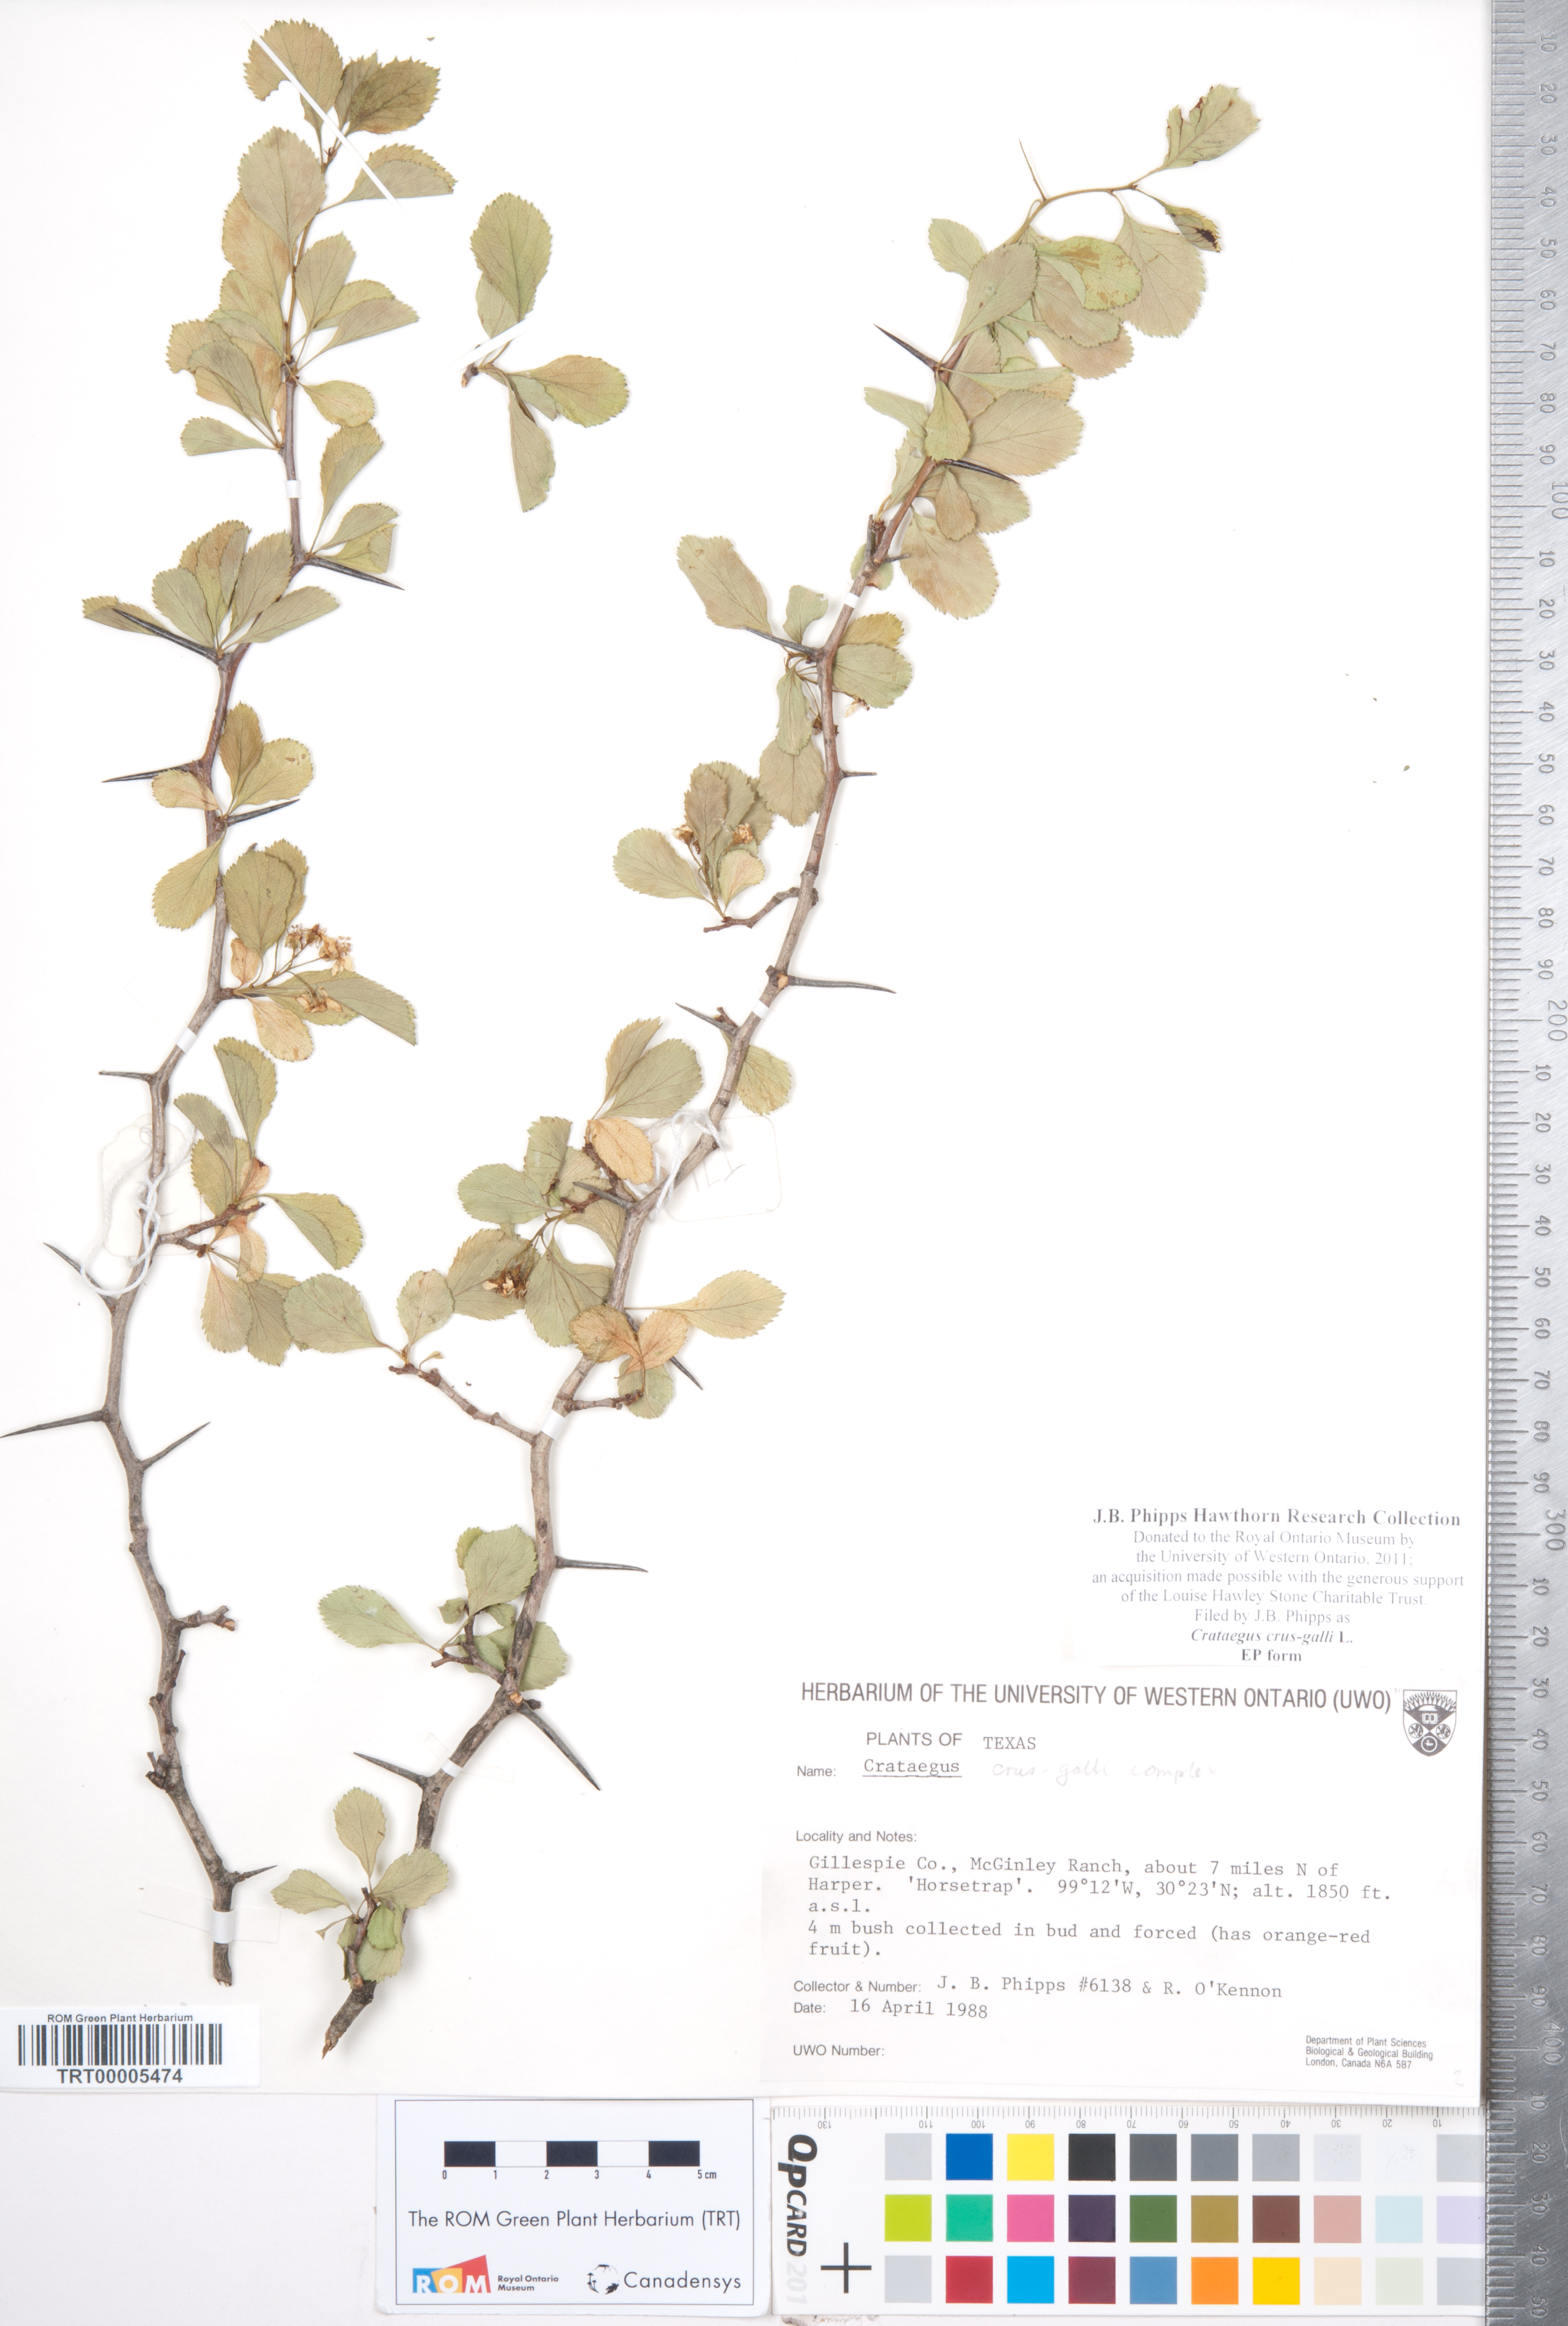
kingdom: Plantae
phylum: Tracheophyta
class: Magnoliopsida
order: Rosales
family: Rosaceae
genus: Crataegus
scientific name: Crataegus crus-galli
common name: Cockspurthorn
